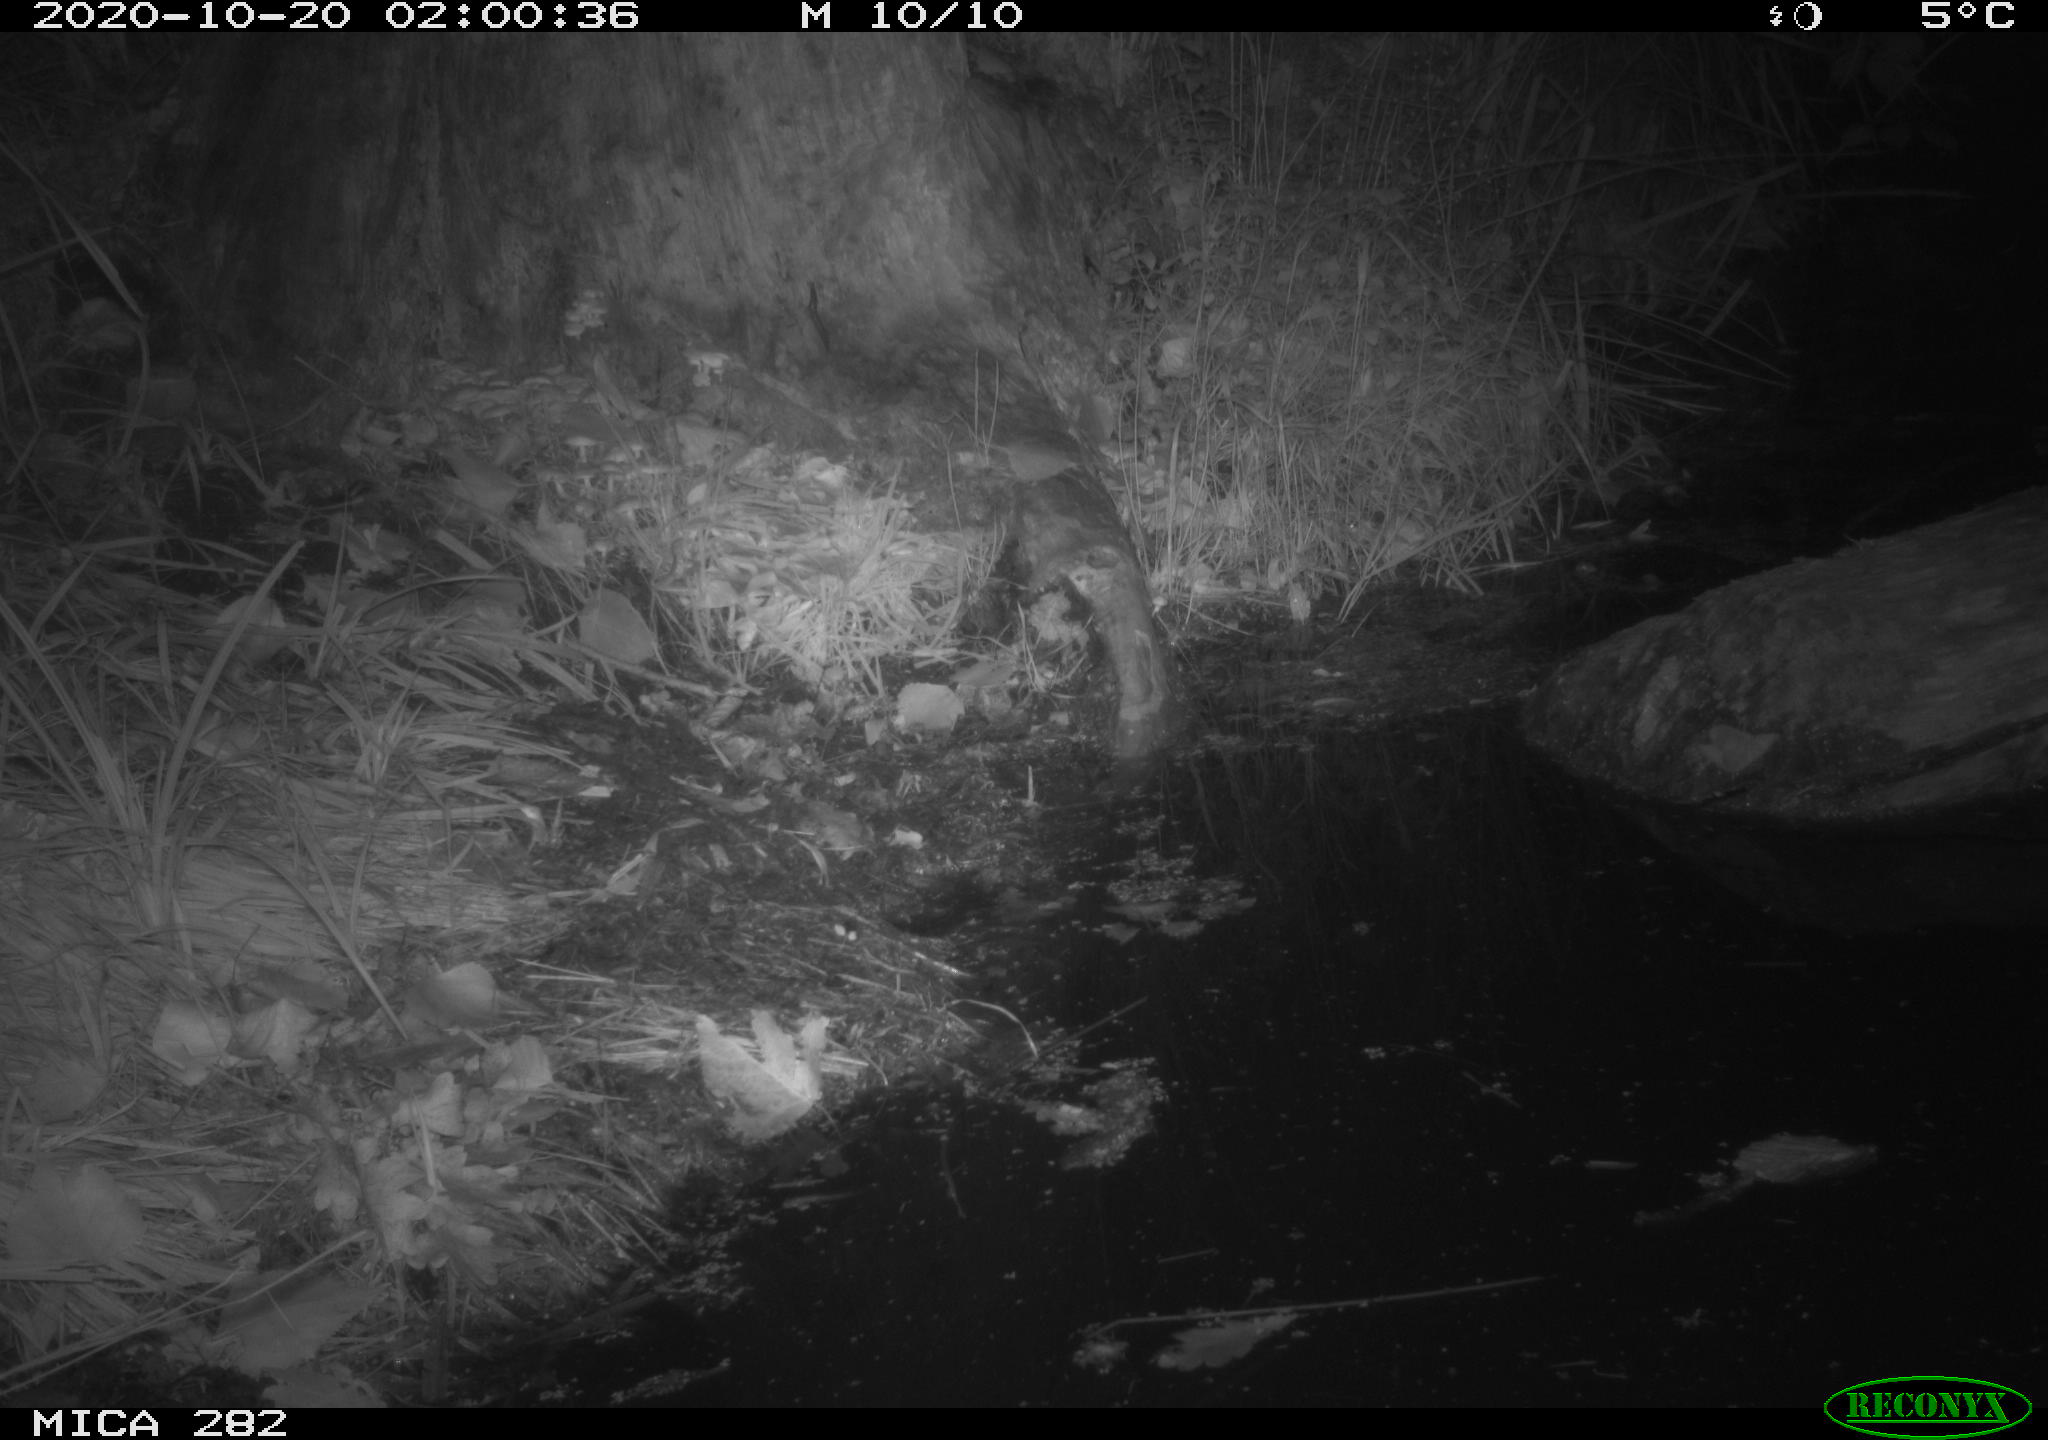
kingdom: Animalia
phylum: Chordata
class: Mammalia
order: Carnivora
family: Canidae
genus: Vulpes
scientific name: Vulpes vulpes
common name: Red fox
